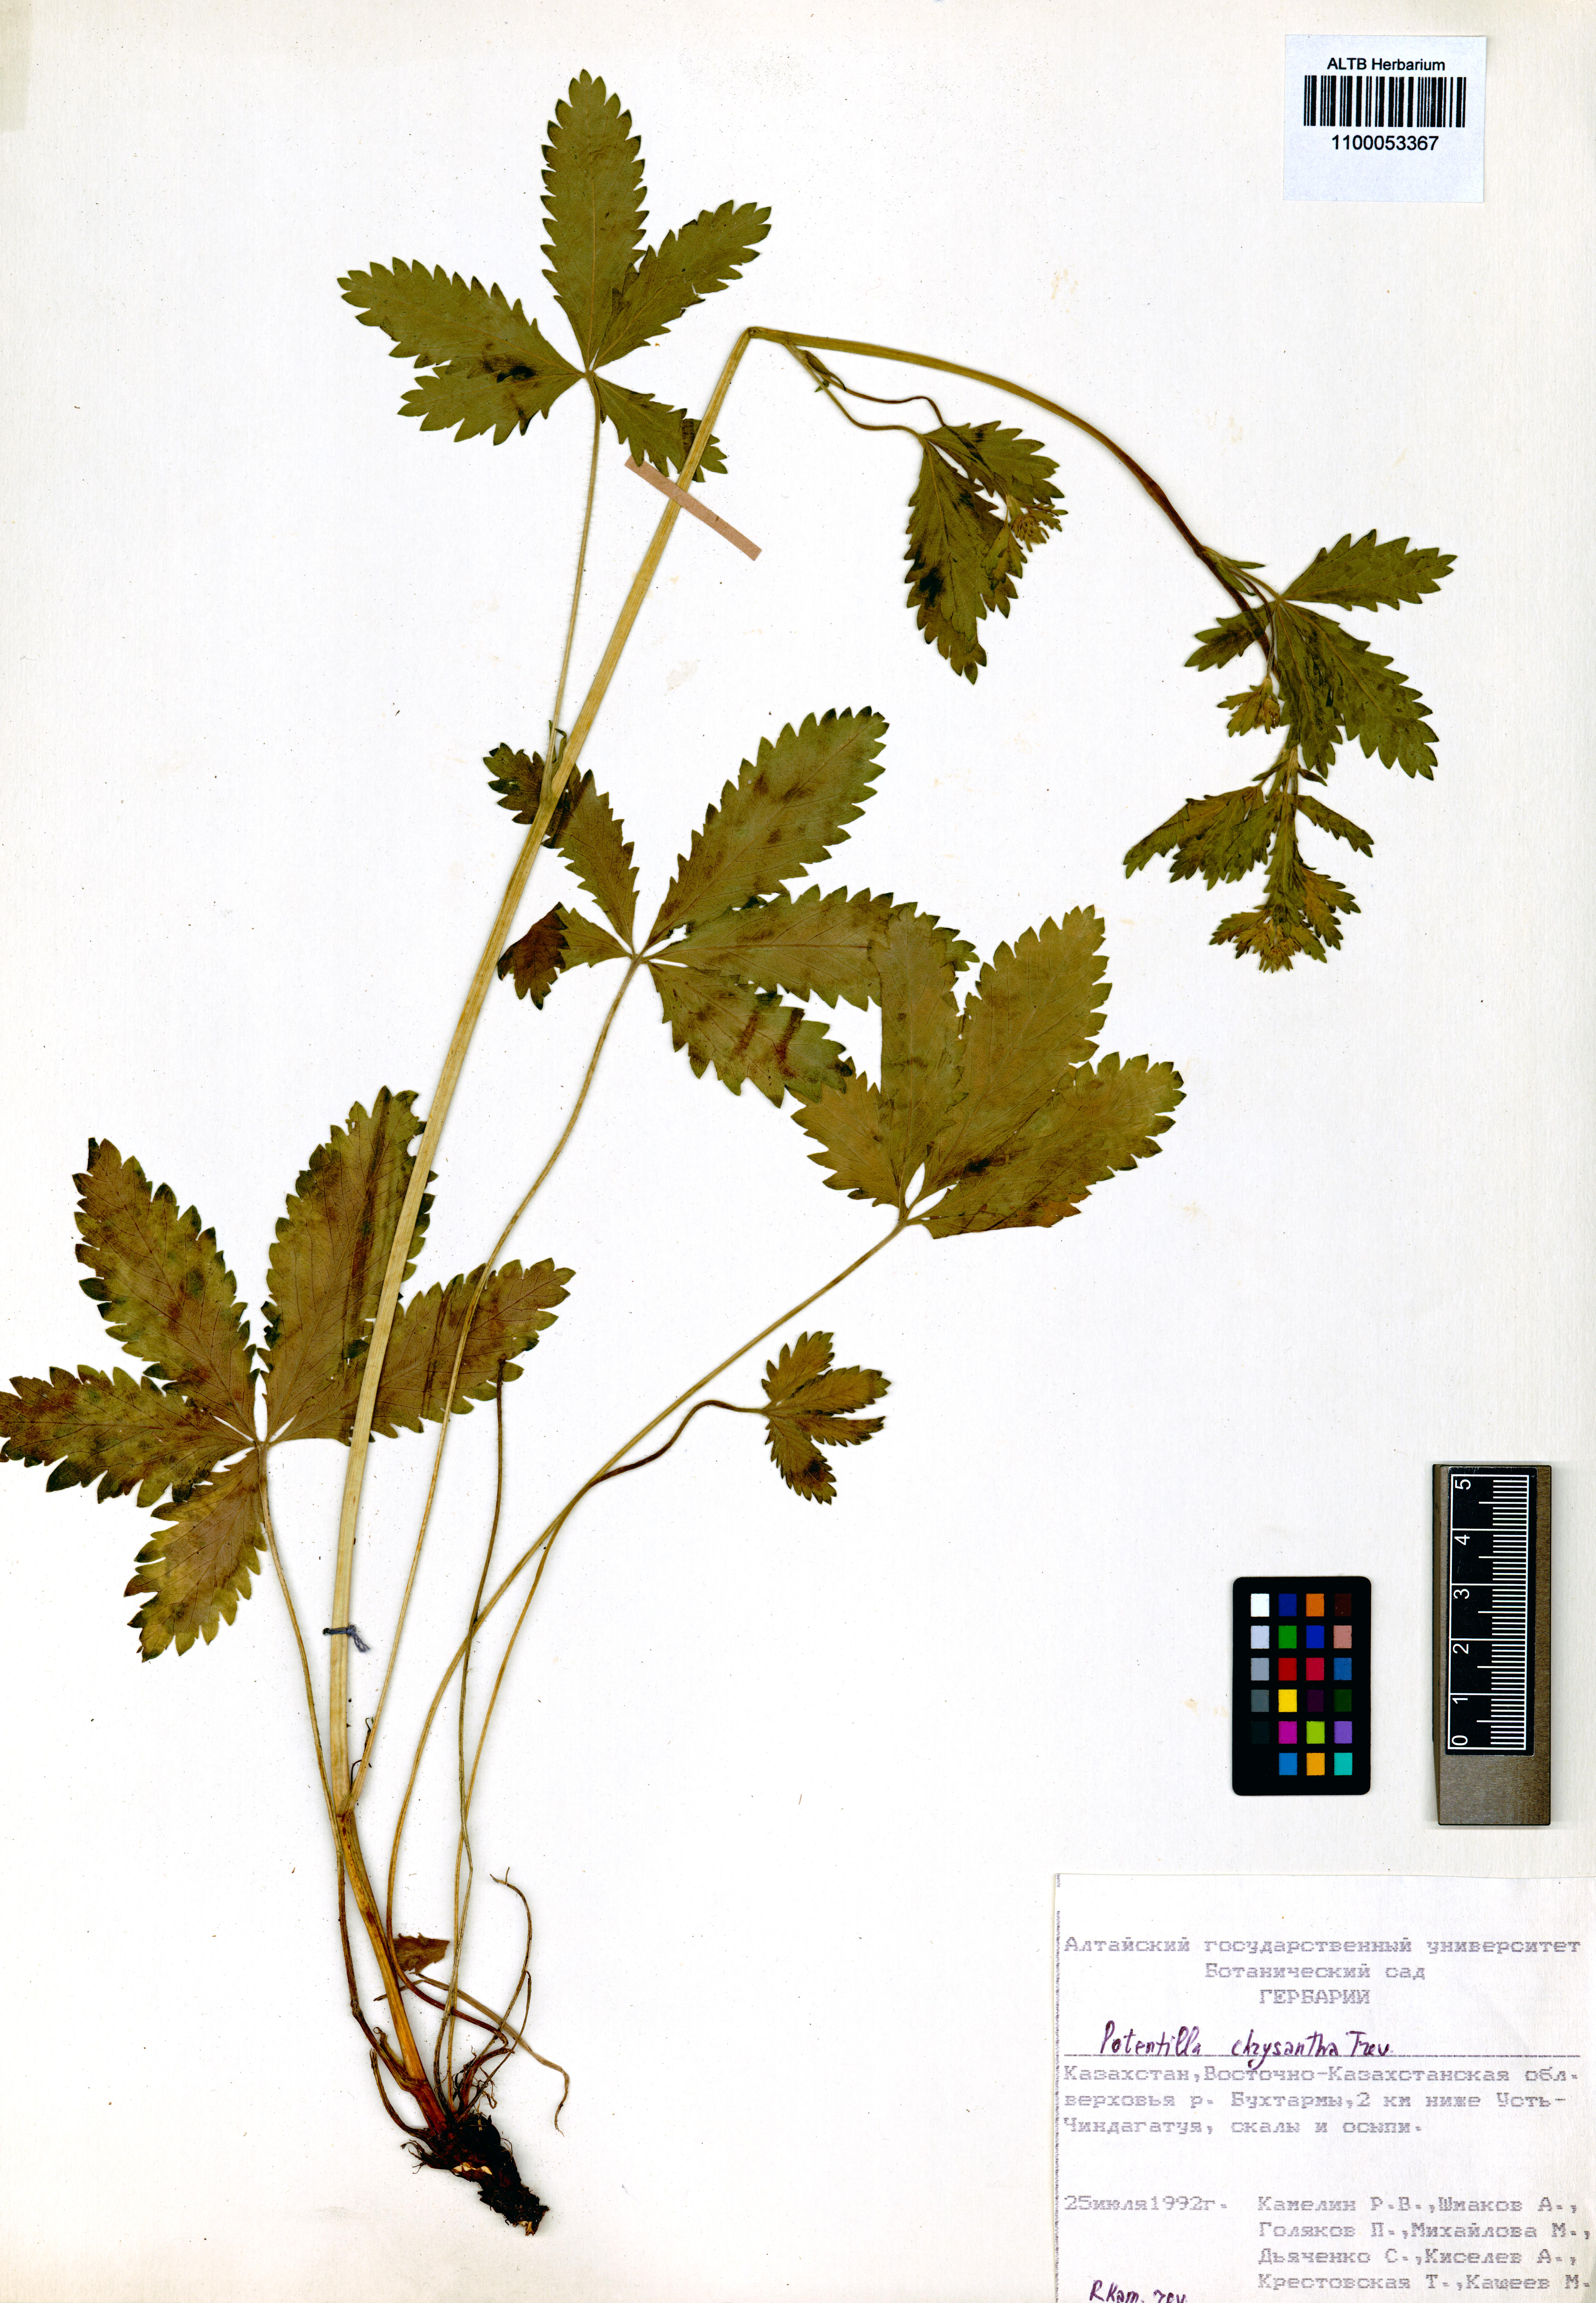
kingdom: Plantae
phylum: Tracheophyta
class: Magnoliopsida
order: Rosales
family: Rosaceae
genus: Potentilla
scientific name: Potentilla chrysantha
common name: Thuringian cinquefoil
